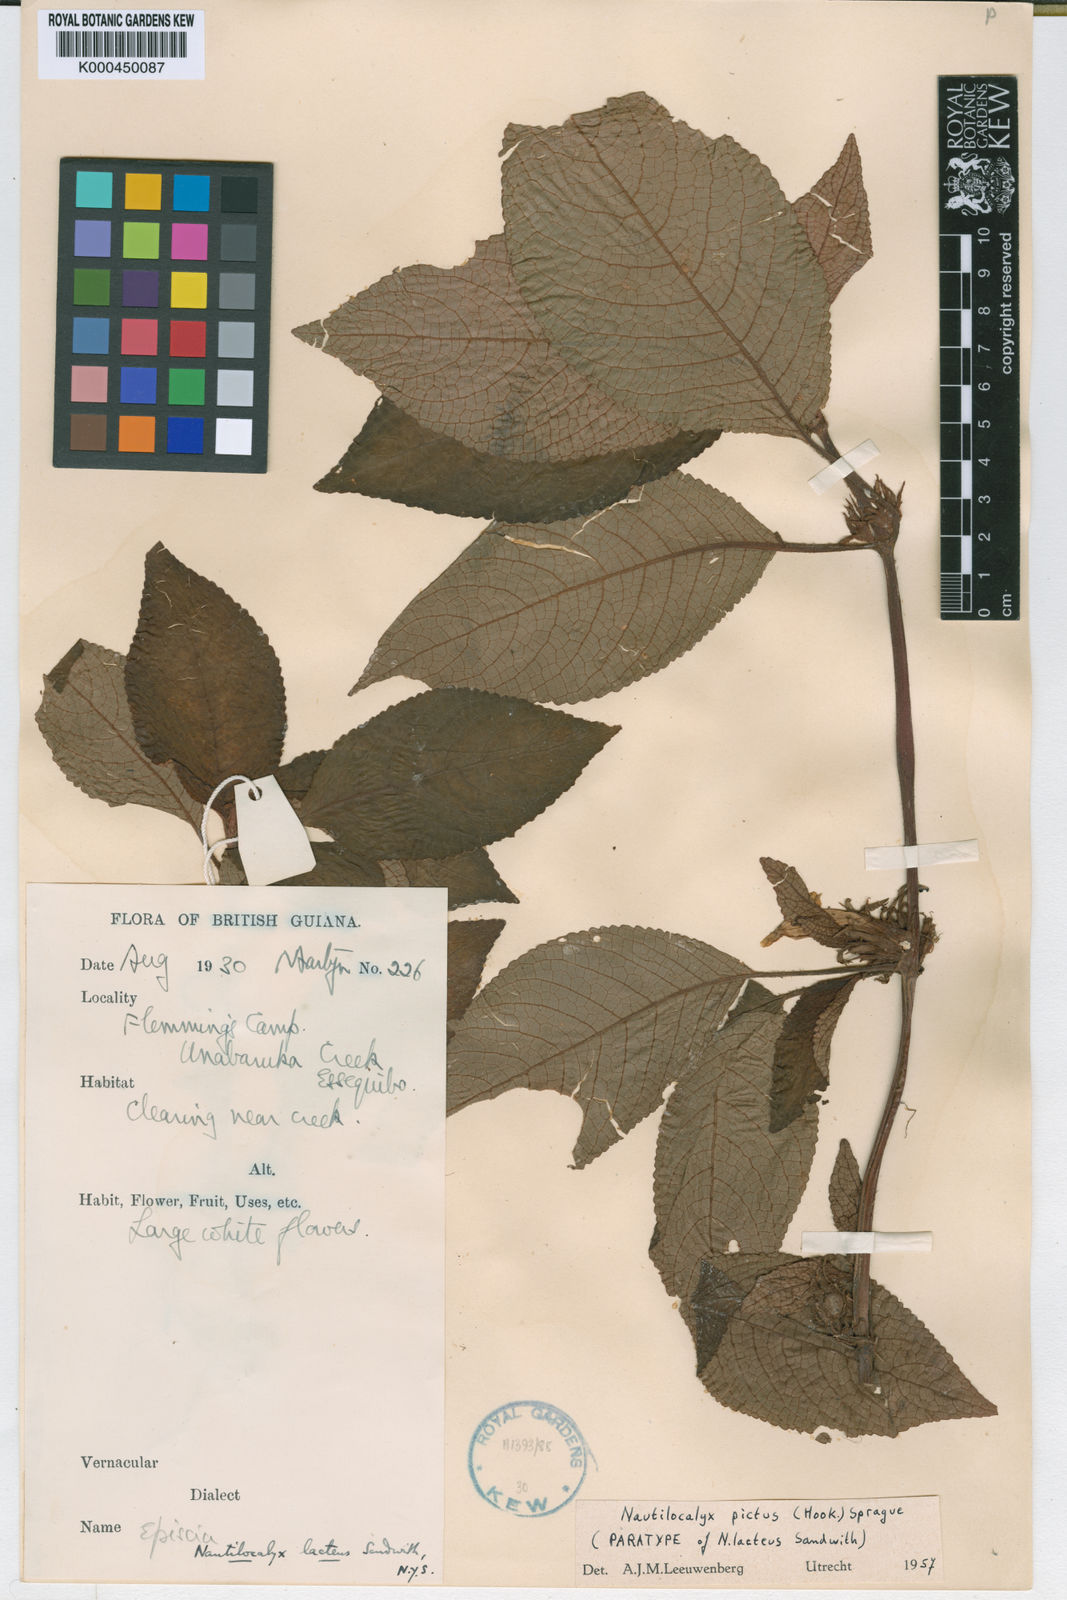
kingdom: Plantae
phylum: Tracheophyta
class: Magnoliopsida
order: Lamiales
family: Gesneriaceae
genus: Centrosolenia
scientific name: Centrosolenia picta
